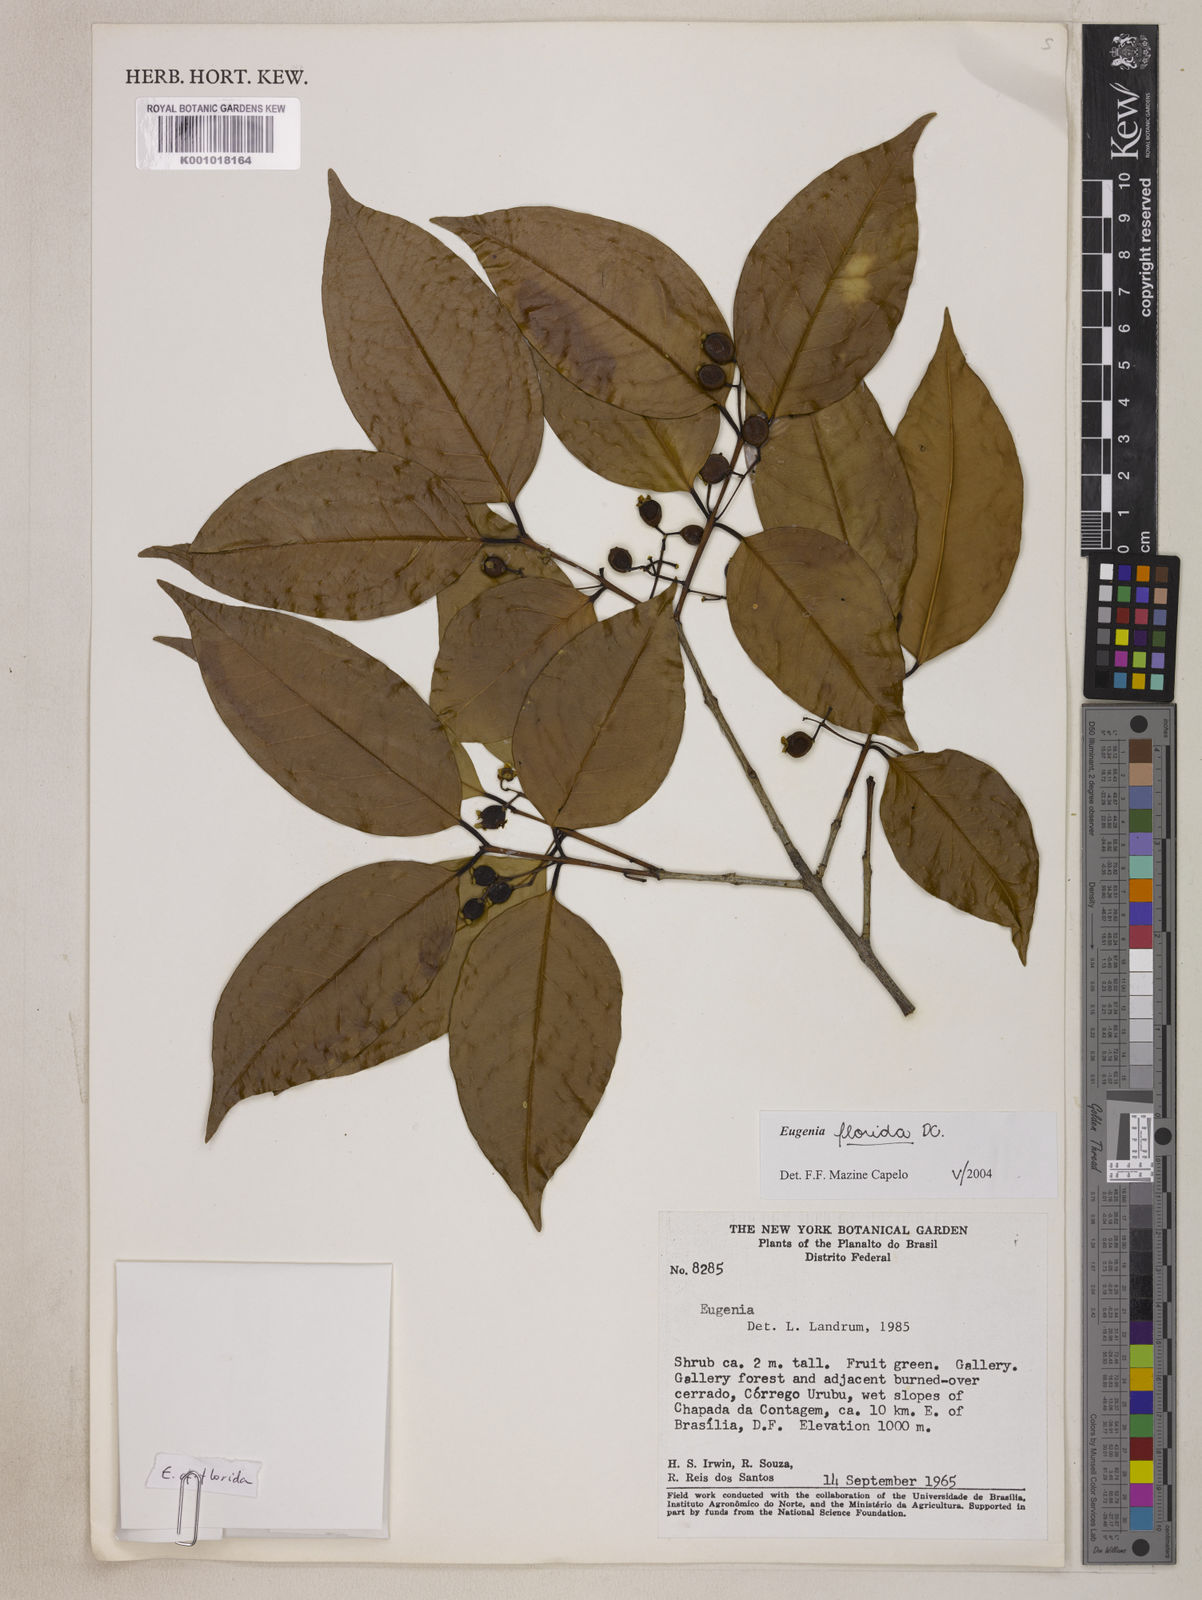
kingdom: Plantae
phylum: Tracheophyta
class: Magnoliopsida
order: Myrtales
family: Myrtaceae
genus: Eugenia
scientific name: Eugenia florida
